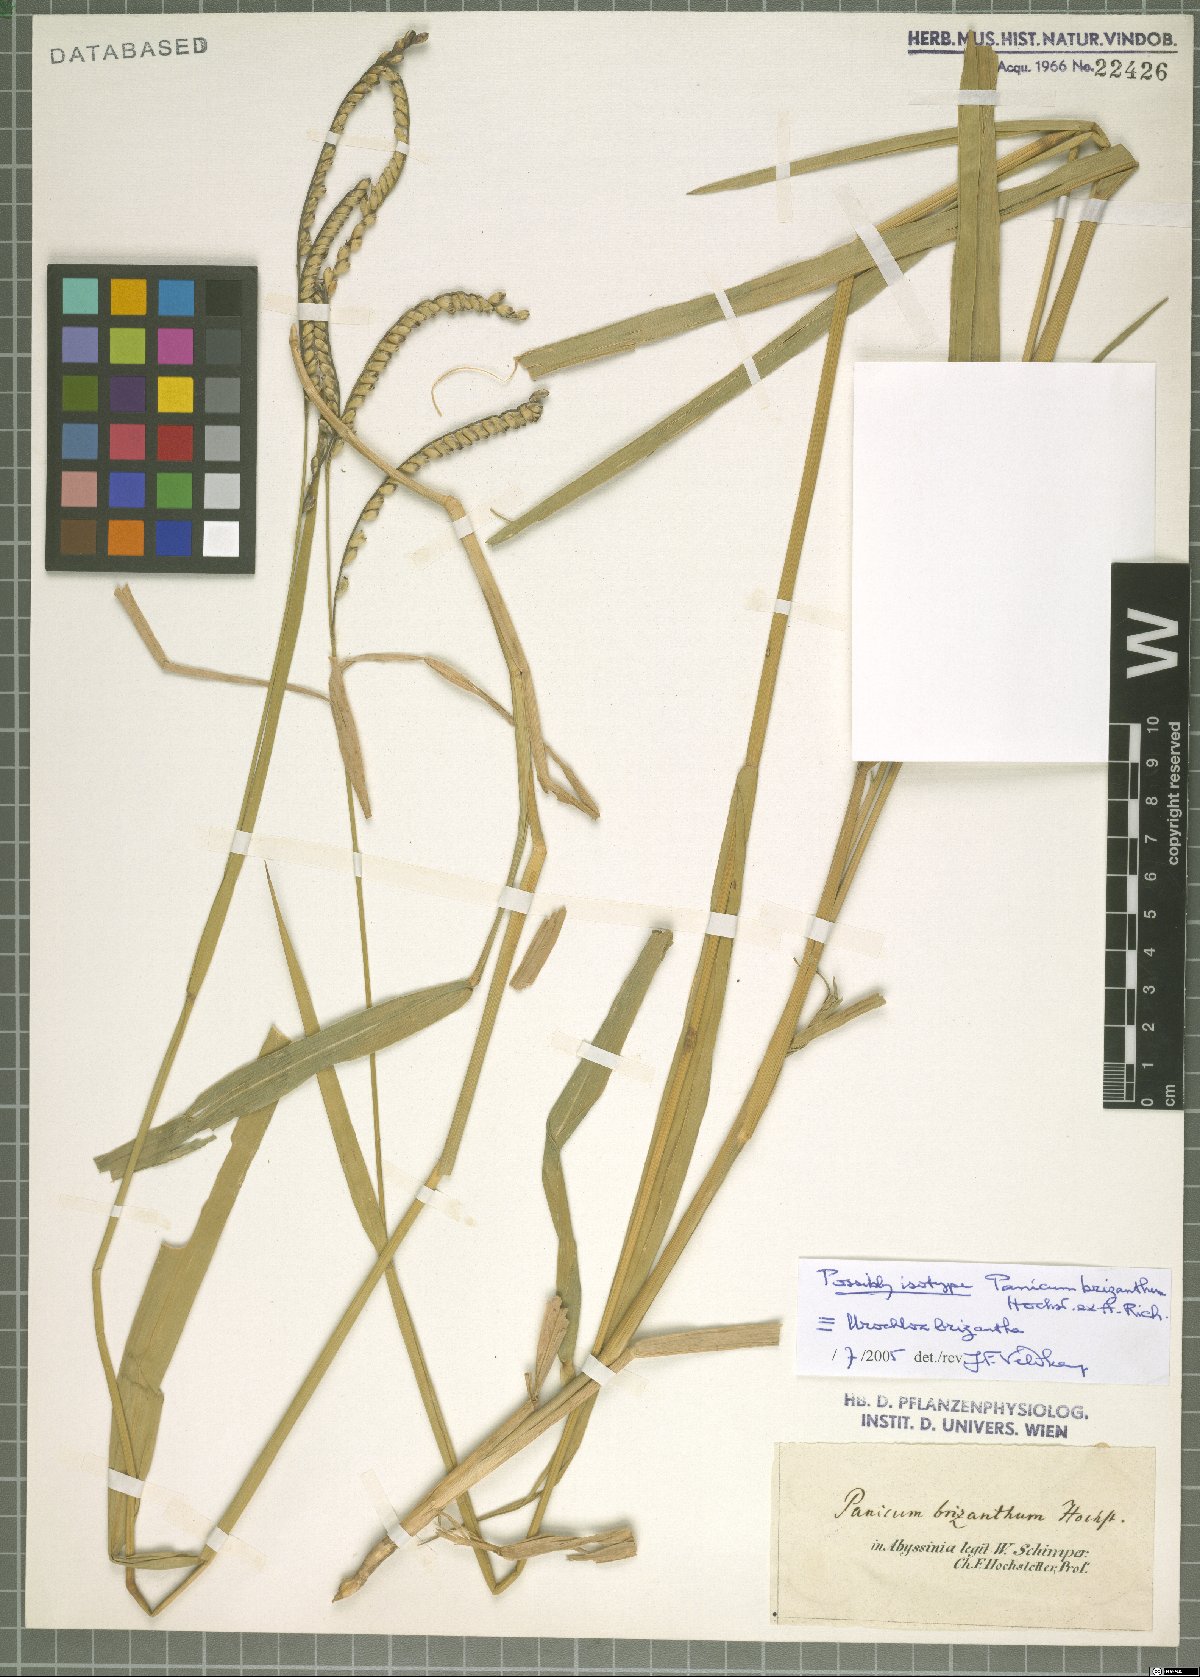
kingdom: Plantae
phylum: Tracheophyta
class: Liliopsida
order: Poales
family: Poaceae
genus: Urochloa
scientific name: Urochloa brizantha
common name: Palisade signalgrass
